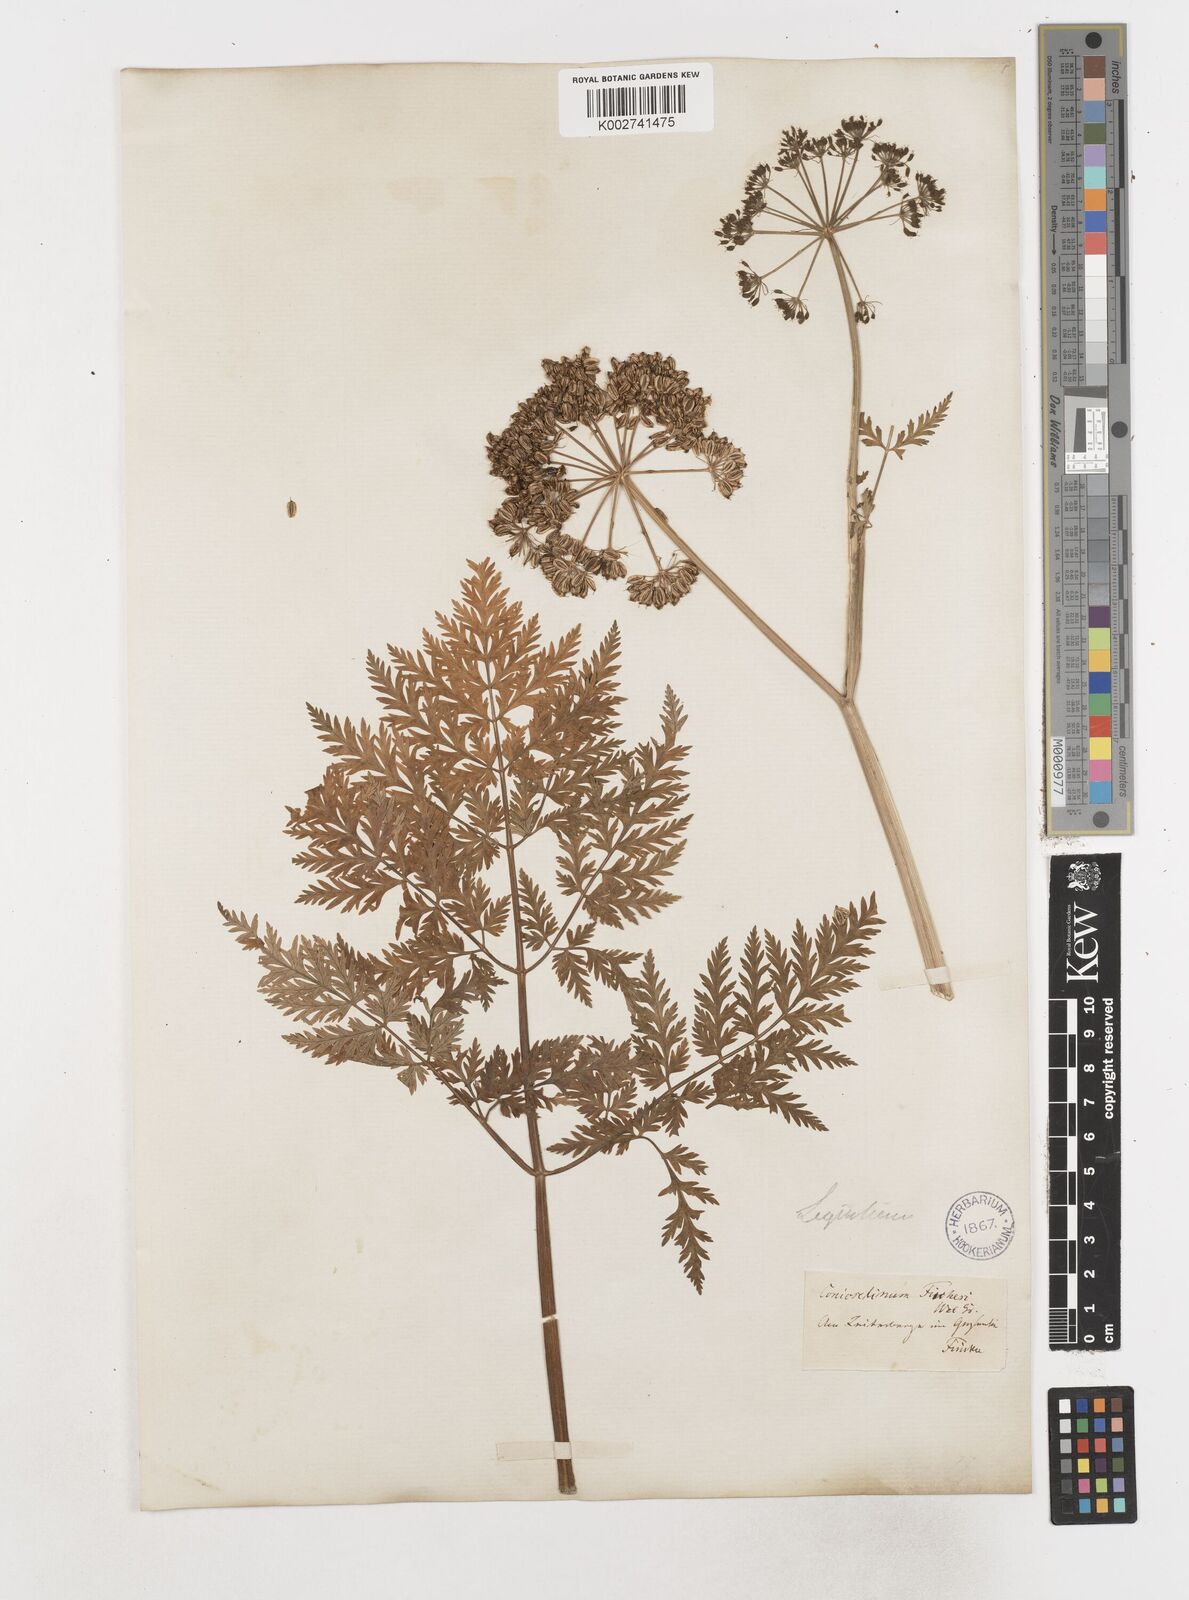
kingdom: Plantae
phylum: Tracheophyta
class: Magnoliopsida
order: Apiales
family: Apiaceae
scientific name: Apiaceae
